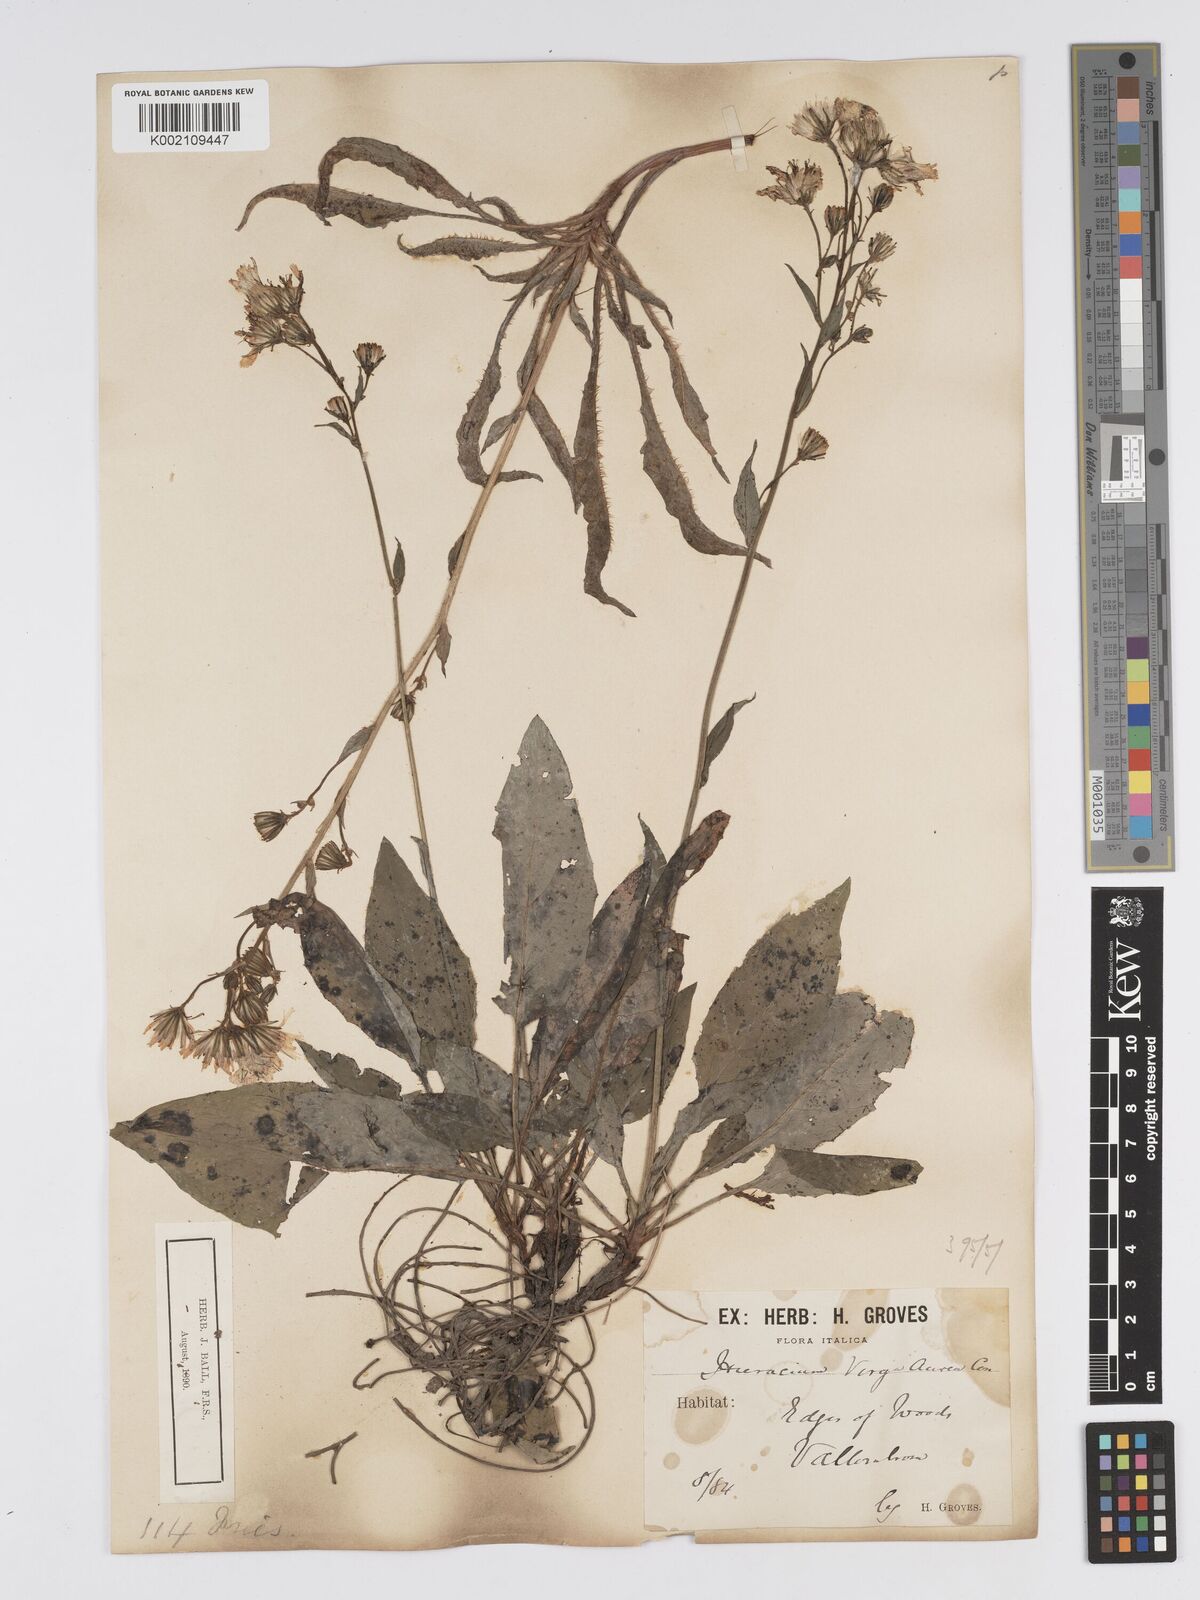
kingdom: Plantae
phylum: Tracheophyta
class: Magnoliopsida
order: Asterales
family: Asteraceae
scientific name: Asteraceae
